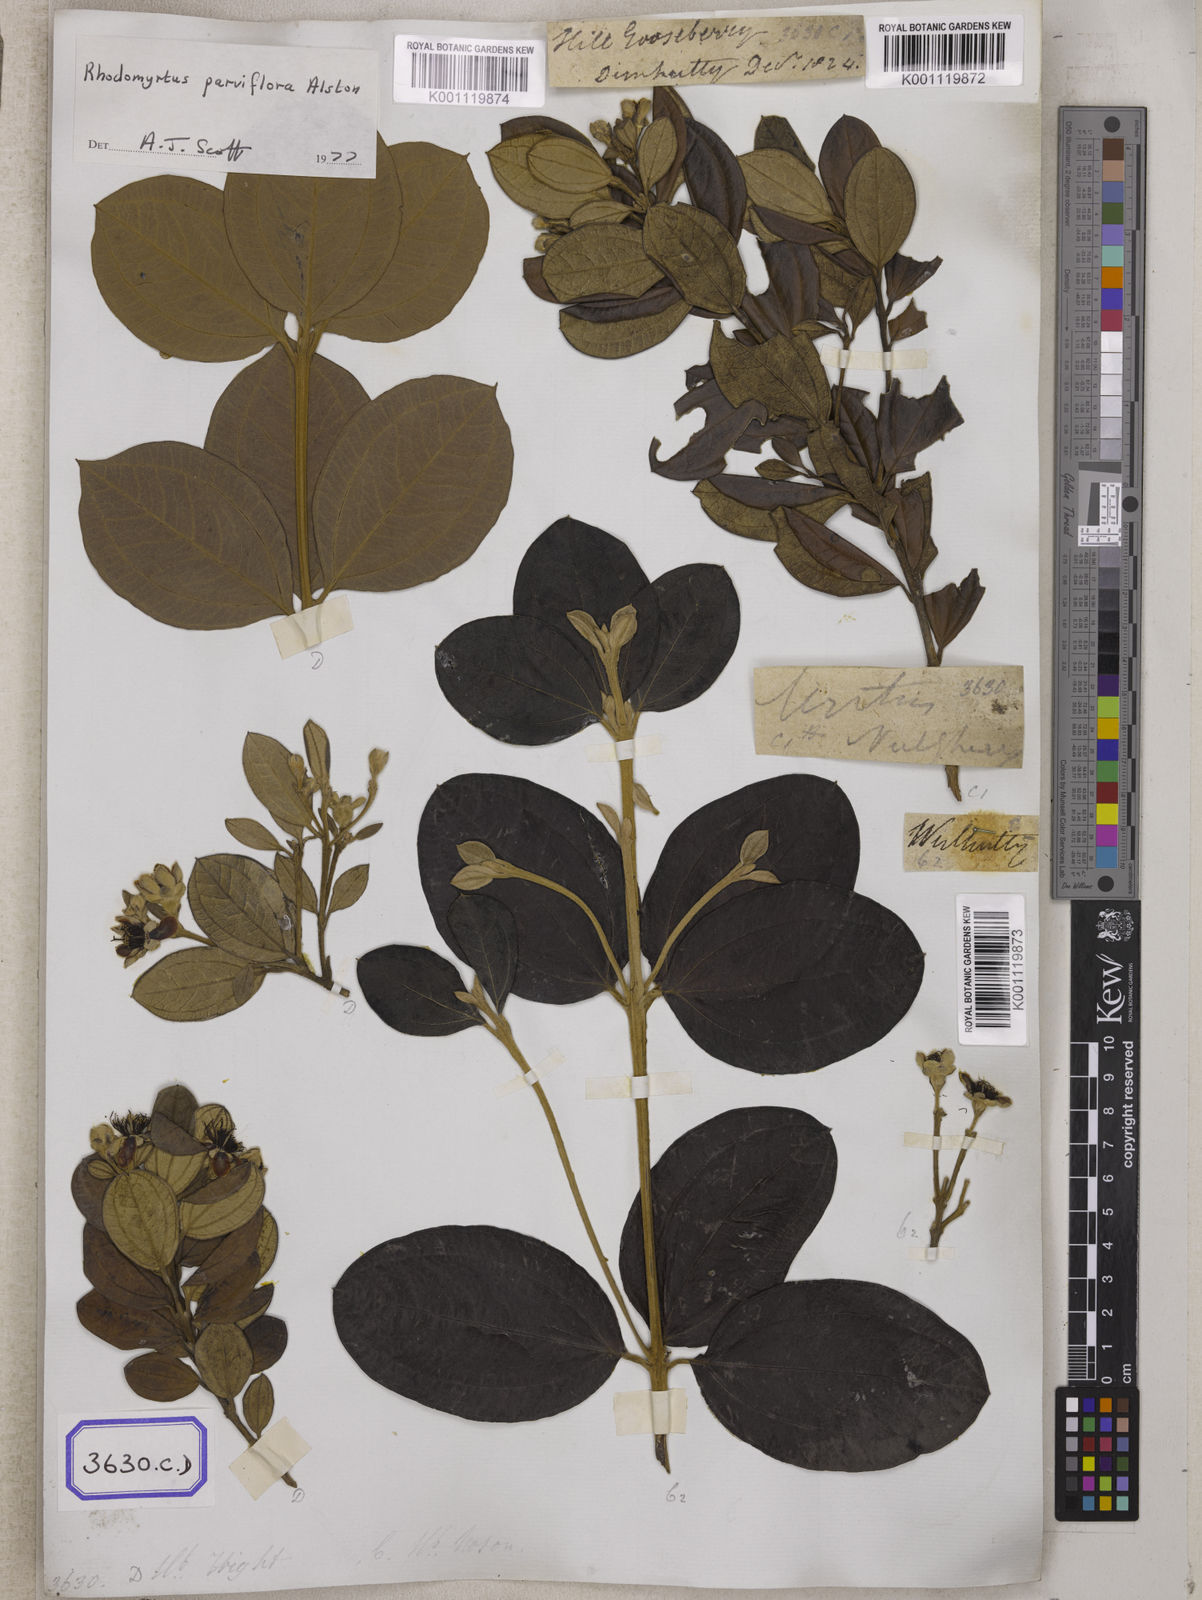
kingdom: Plantae
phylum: Tracheophyta
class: Magnoliopsida
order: Myrtales
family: Myrtaceae
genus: Rhodomyrtus
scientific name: Rhodomyrtus tomentosa
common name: Rose myrtle
